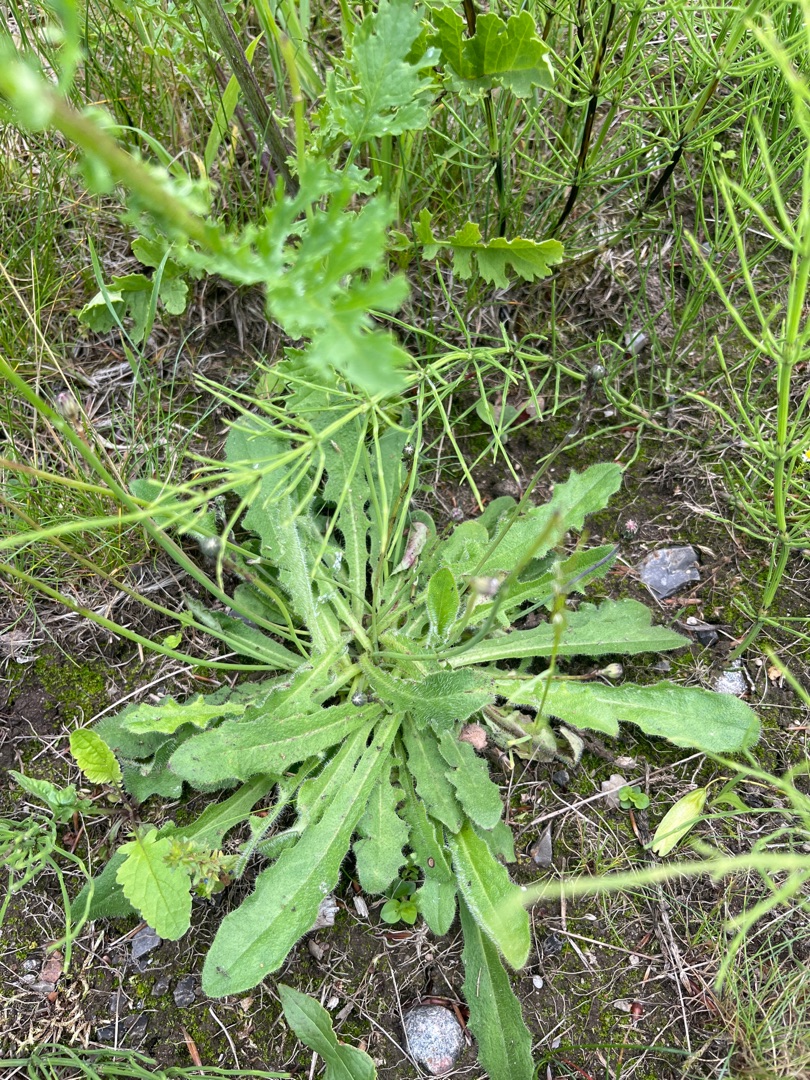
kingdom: Plantae
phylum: Tracheophyta
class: Magnoliopsida
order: Asterales
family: Asteraceae
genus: Hypochaeris
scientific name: Hypochaeris radicata
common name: Almindelig kongepen
